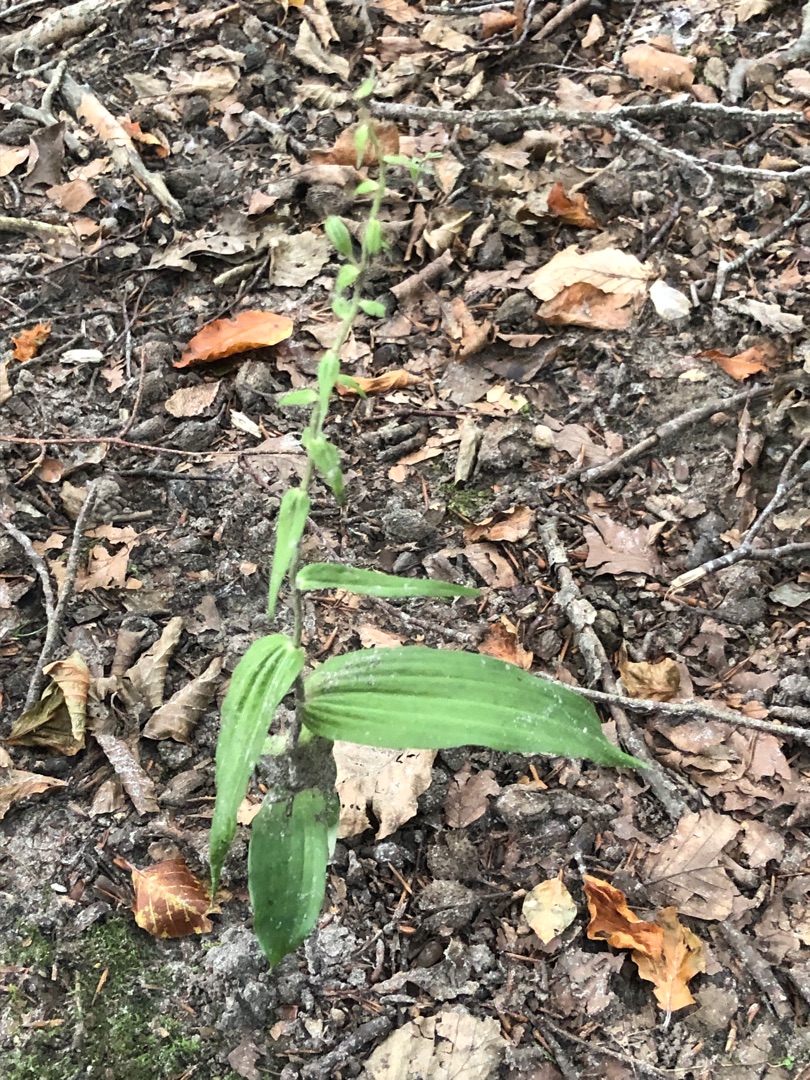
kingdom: Plantae
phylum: Tracheophyta
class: Liliopsida
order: Asparagales
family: Orchidaceae
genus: Epipactis
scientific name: Epipactis helleborine
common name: Skov-hullæbe
